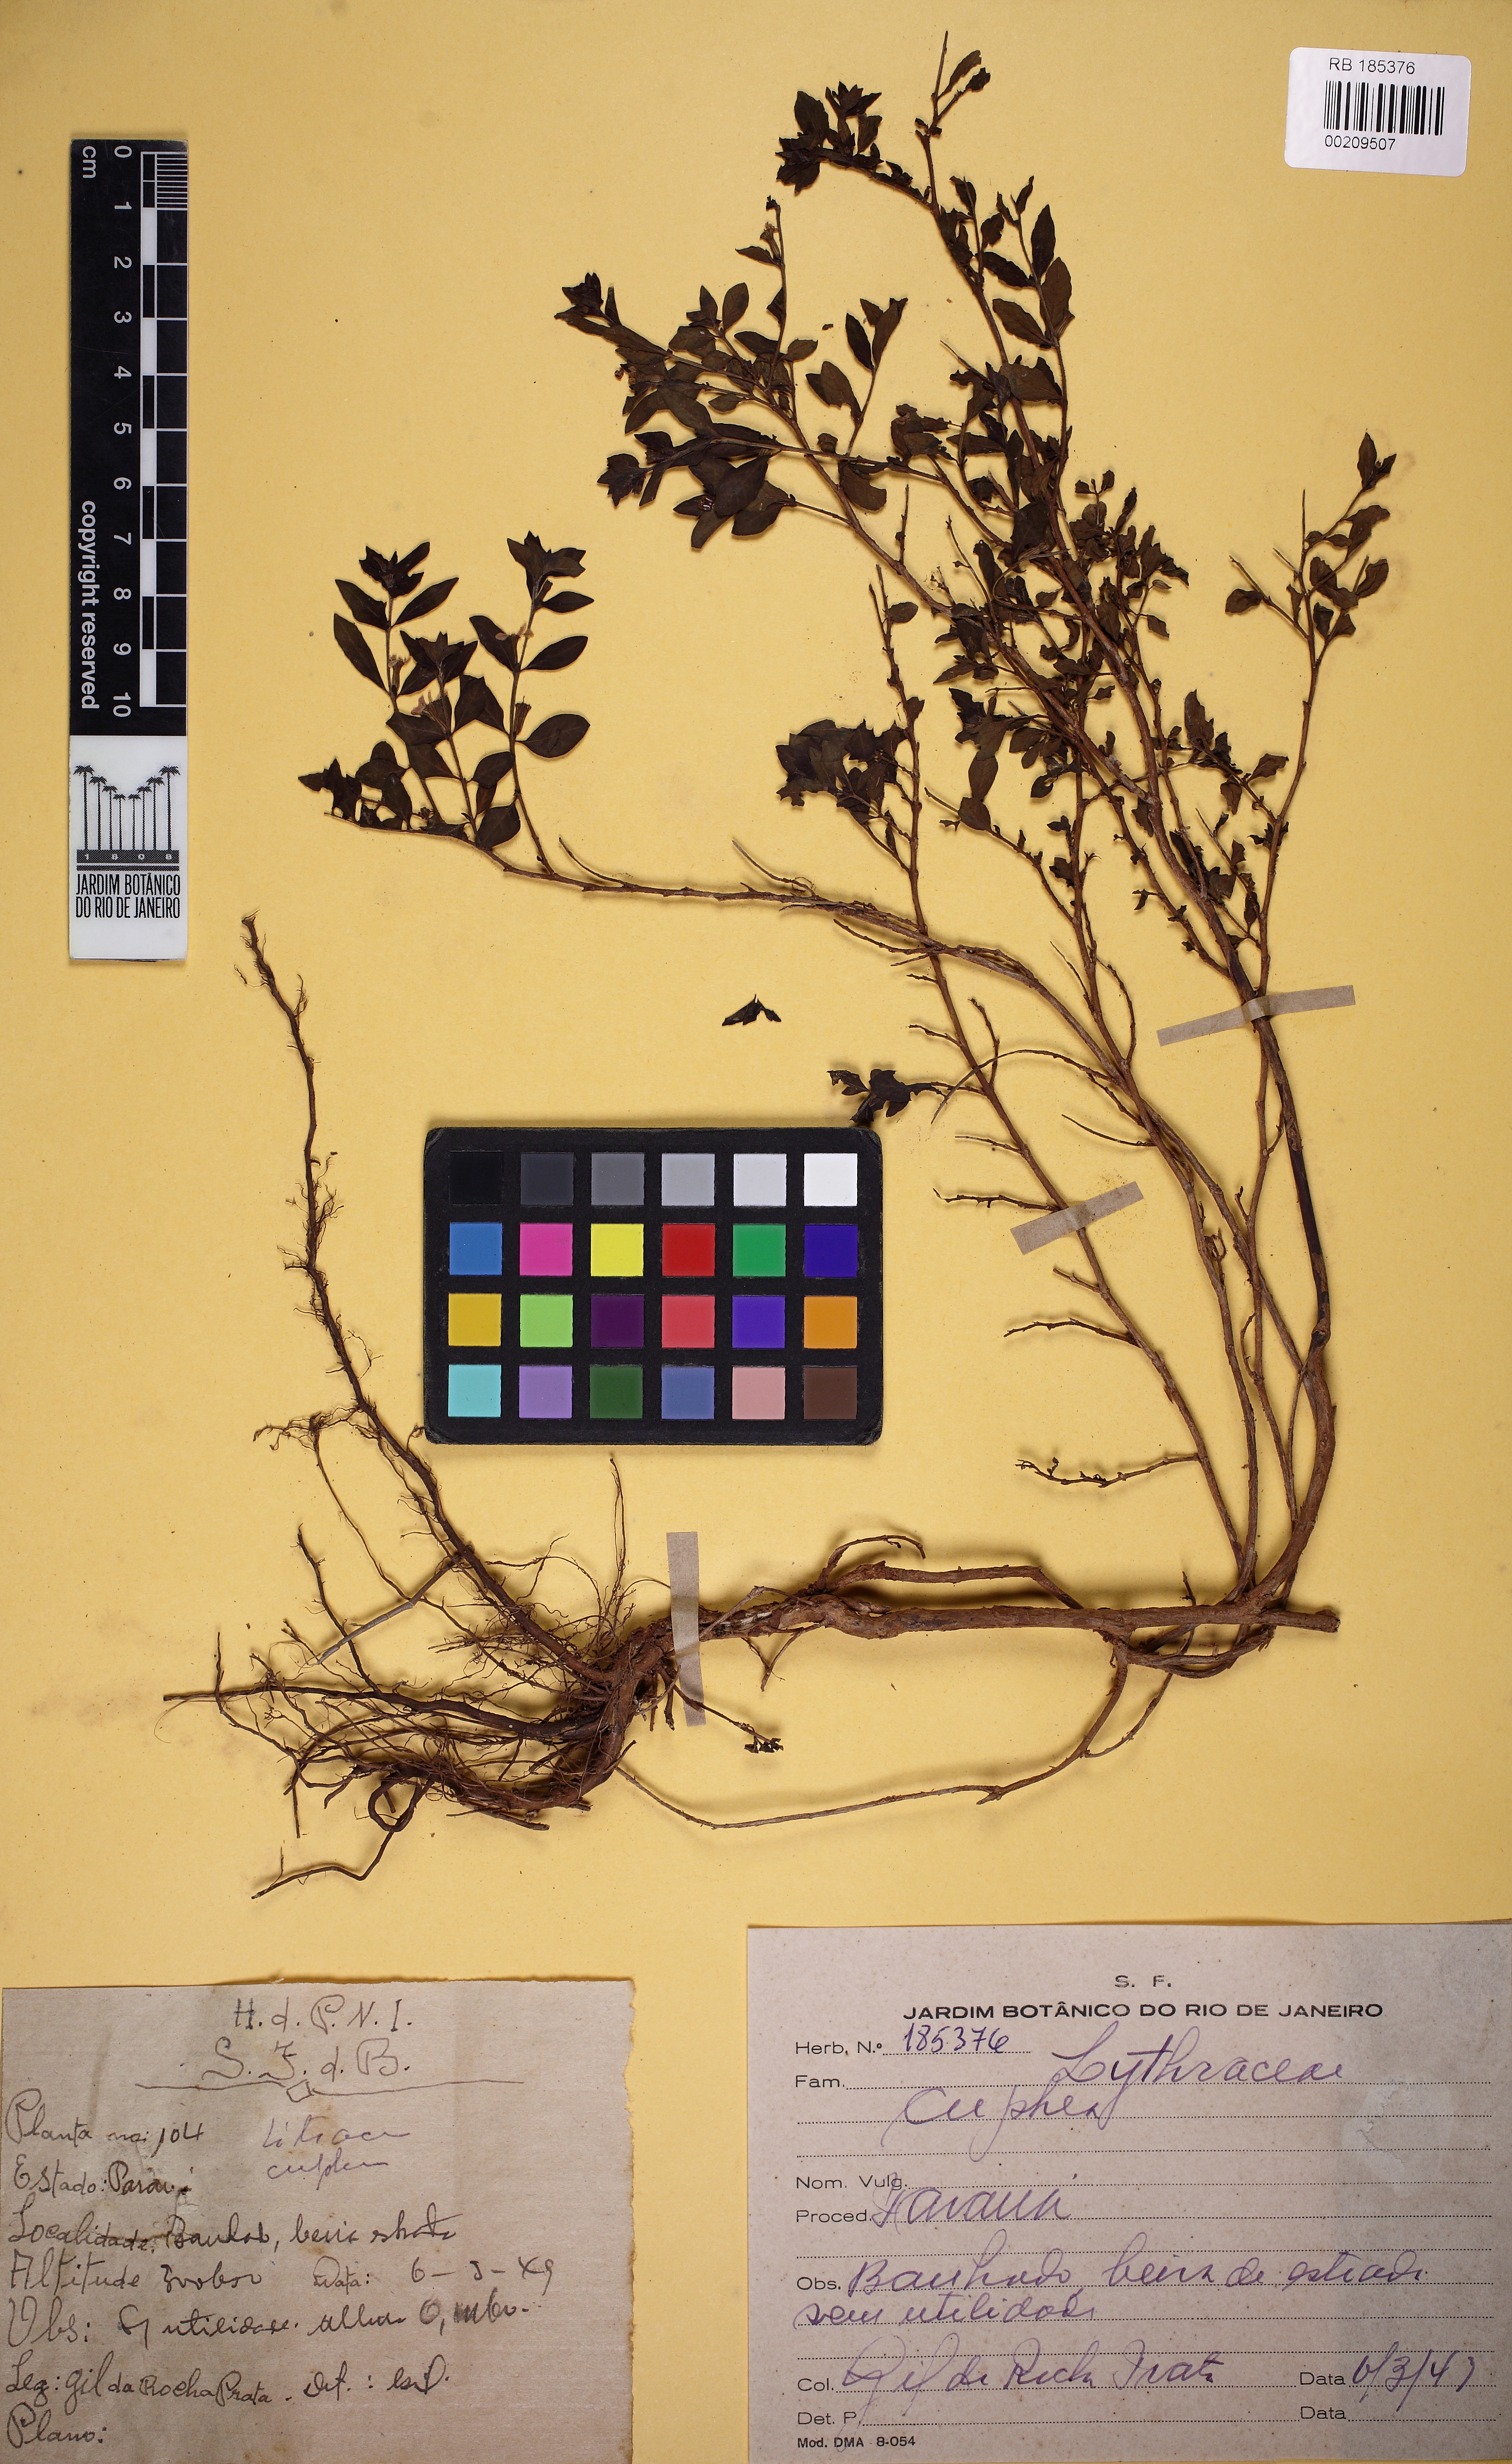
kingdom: Plantae
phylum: Tracheophyta
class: Magnoliopsida
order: Myrtales
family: Lythraceae
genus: Cuphea
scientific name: Cuphea glutinosa
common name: Sticky waxweed
